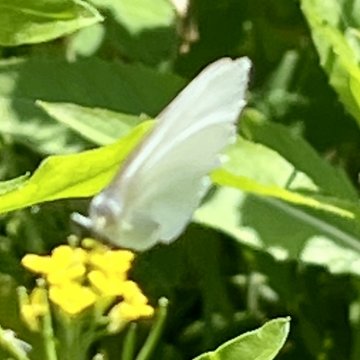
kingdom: Animalia
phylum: Arthropoda
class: Insecta
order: Lepidoptera
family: Pieridae
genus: Pieris
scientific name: Pieris oleracea
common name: Mustard White
